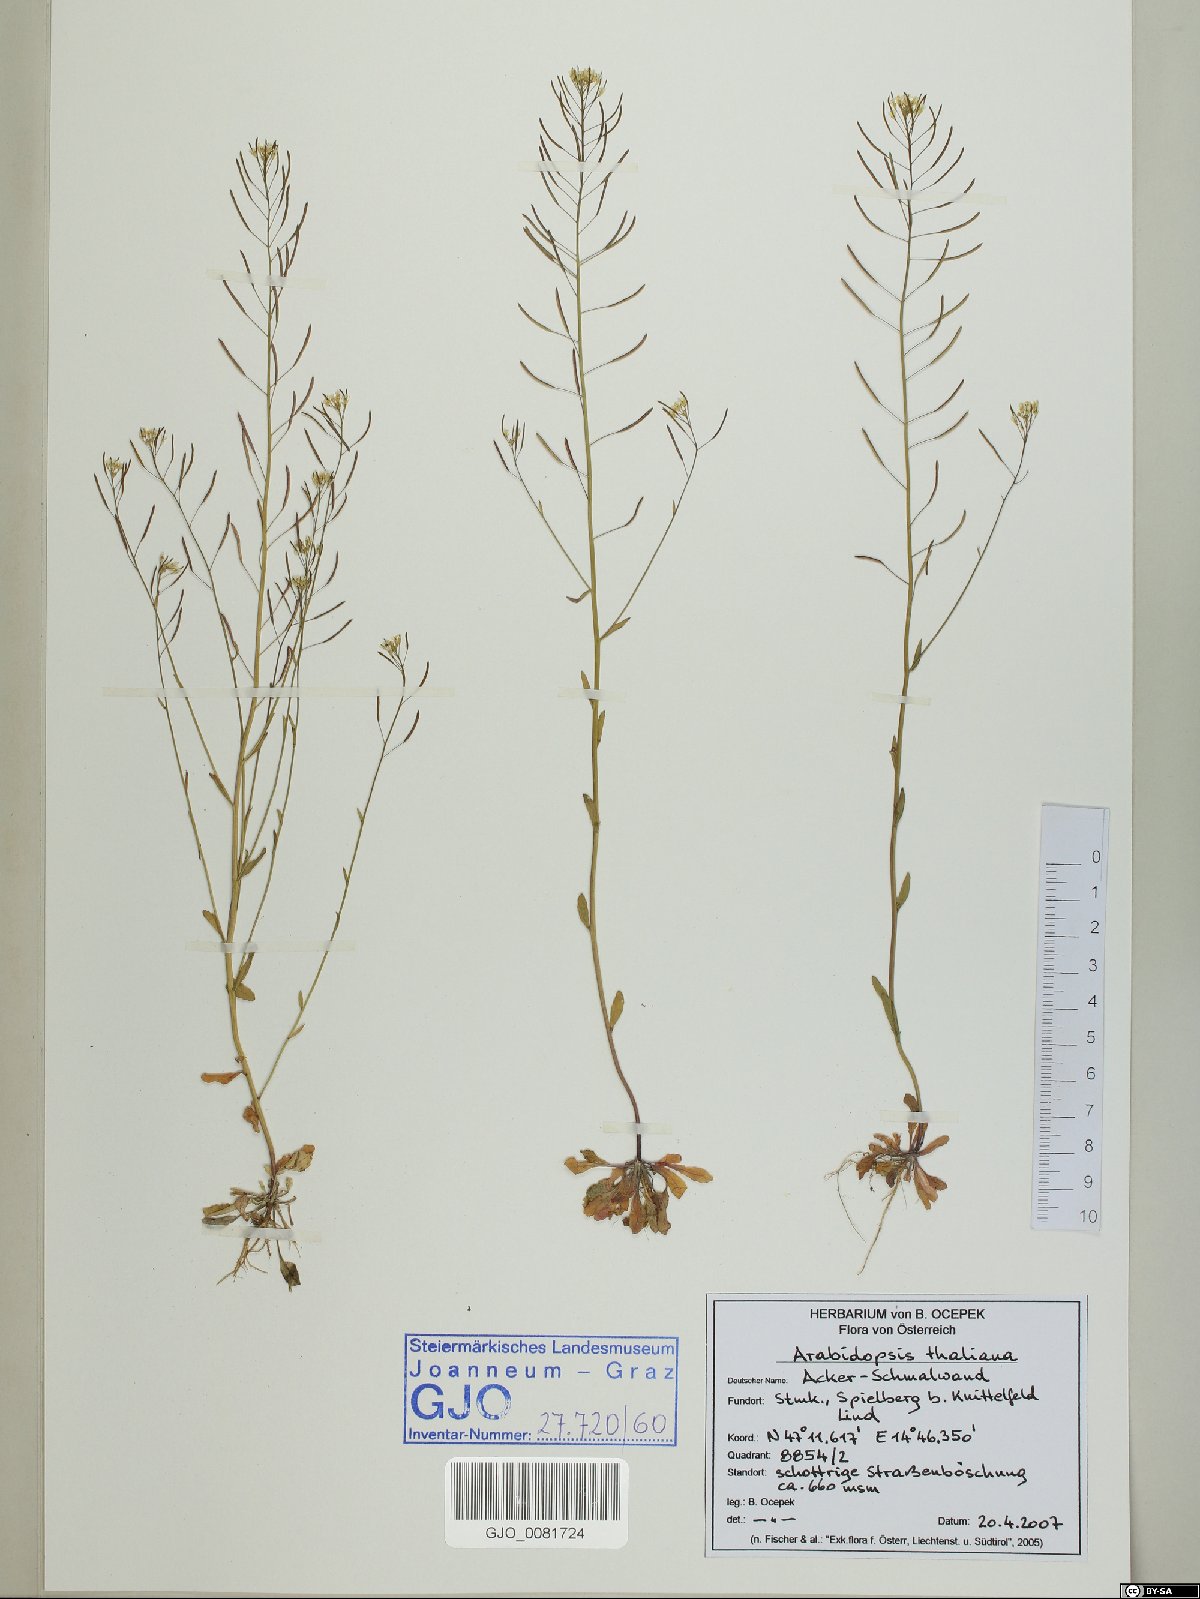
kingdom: Plantae
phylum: Tracheophyta
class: Magnoliopsida
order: Brassicales
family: Brassicaceae
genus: Arabidopsis
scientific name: Arabidopsis thaliana
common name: Thale cress
